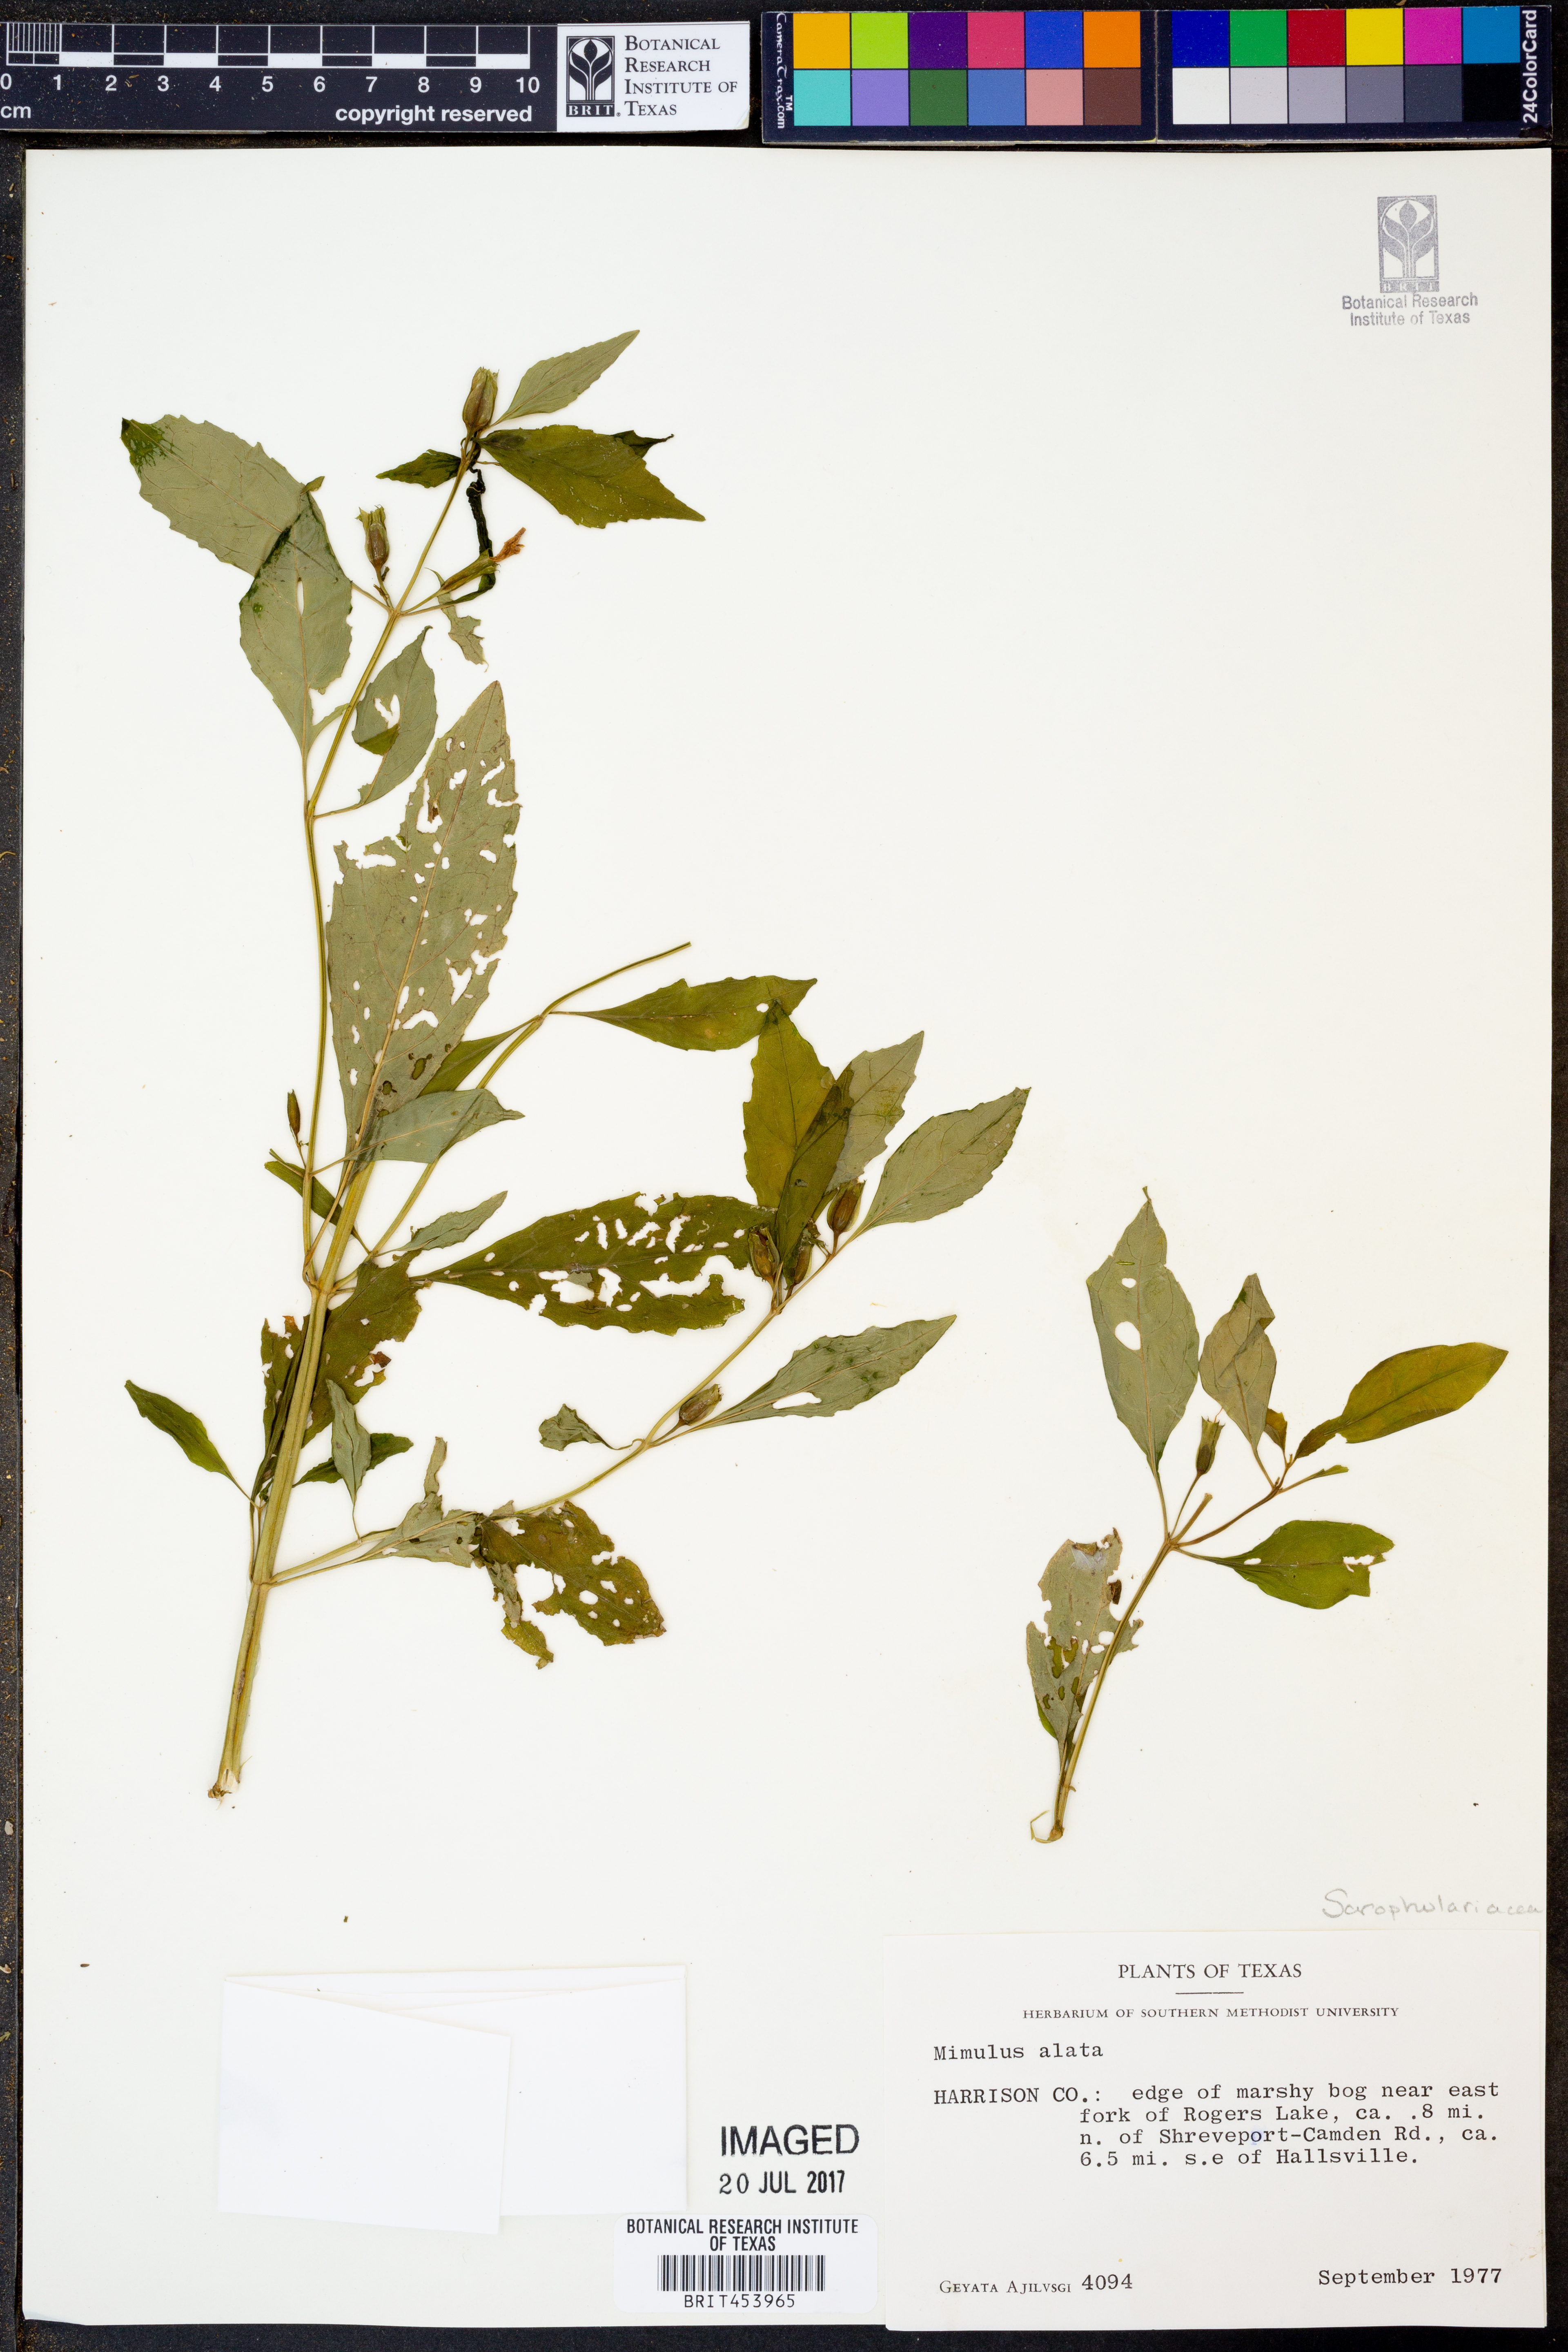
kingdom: Plantae
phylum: Tracheophyta
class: Magnoliopsida
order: Lamiales
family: Phrymaceae
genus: Mimulus
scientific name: Mimulus alatus
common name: Sharp-wing monkey-flower
